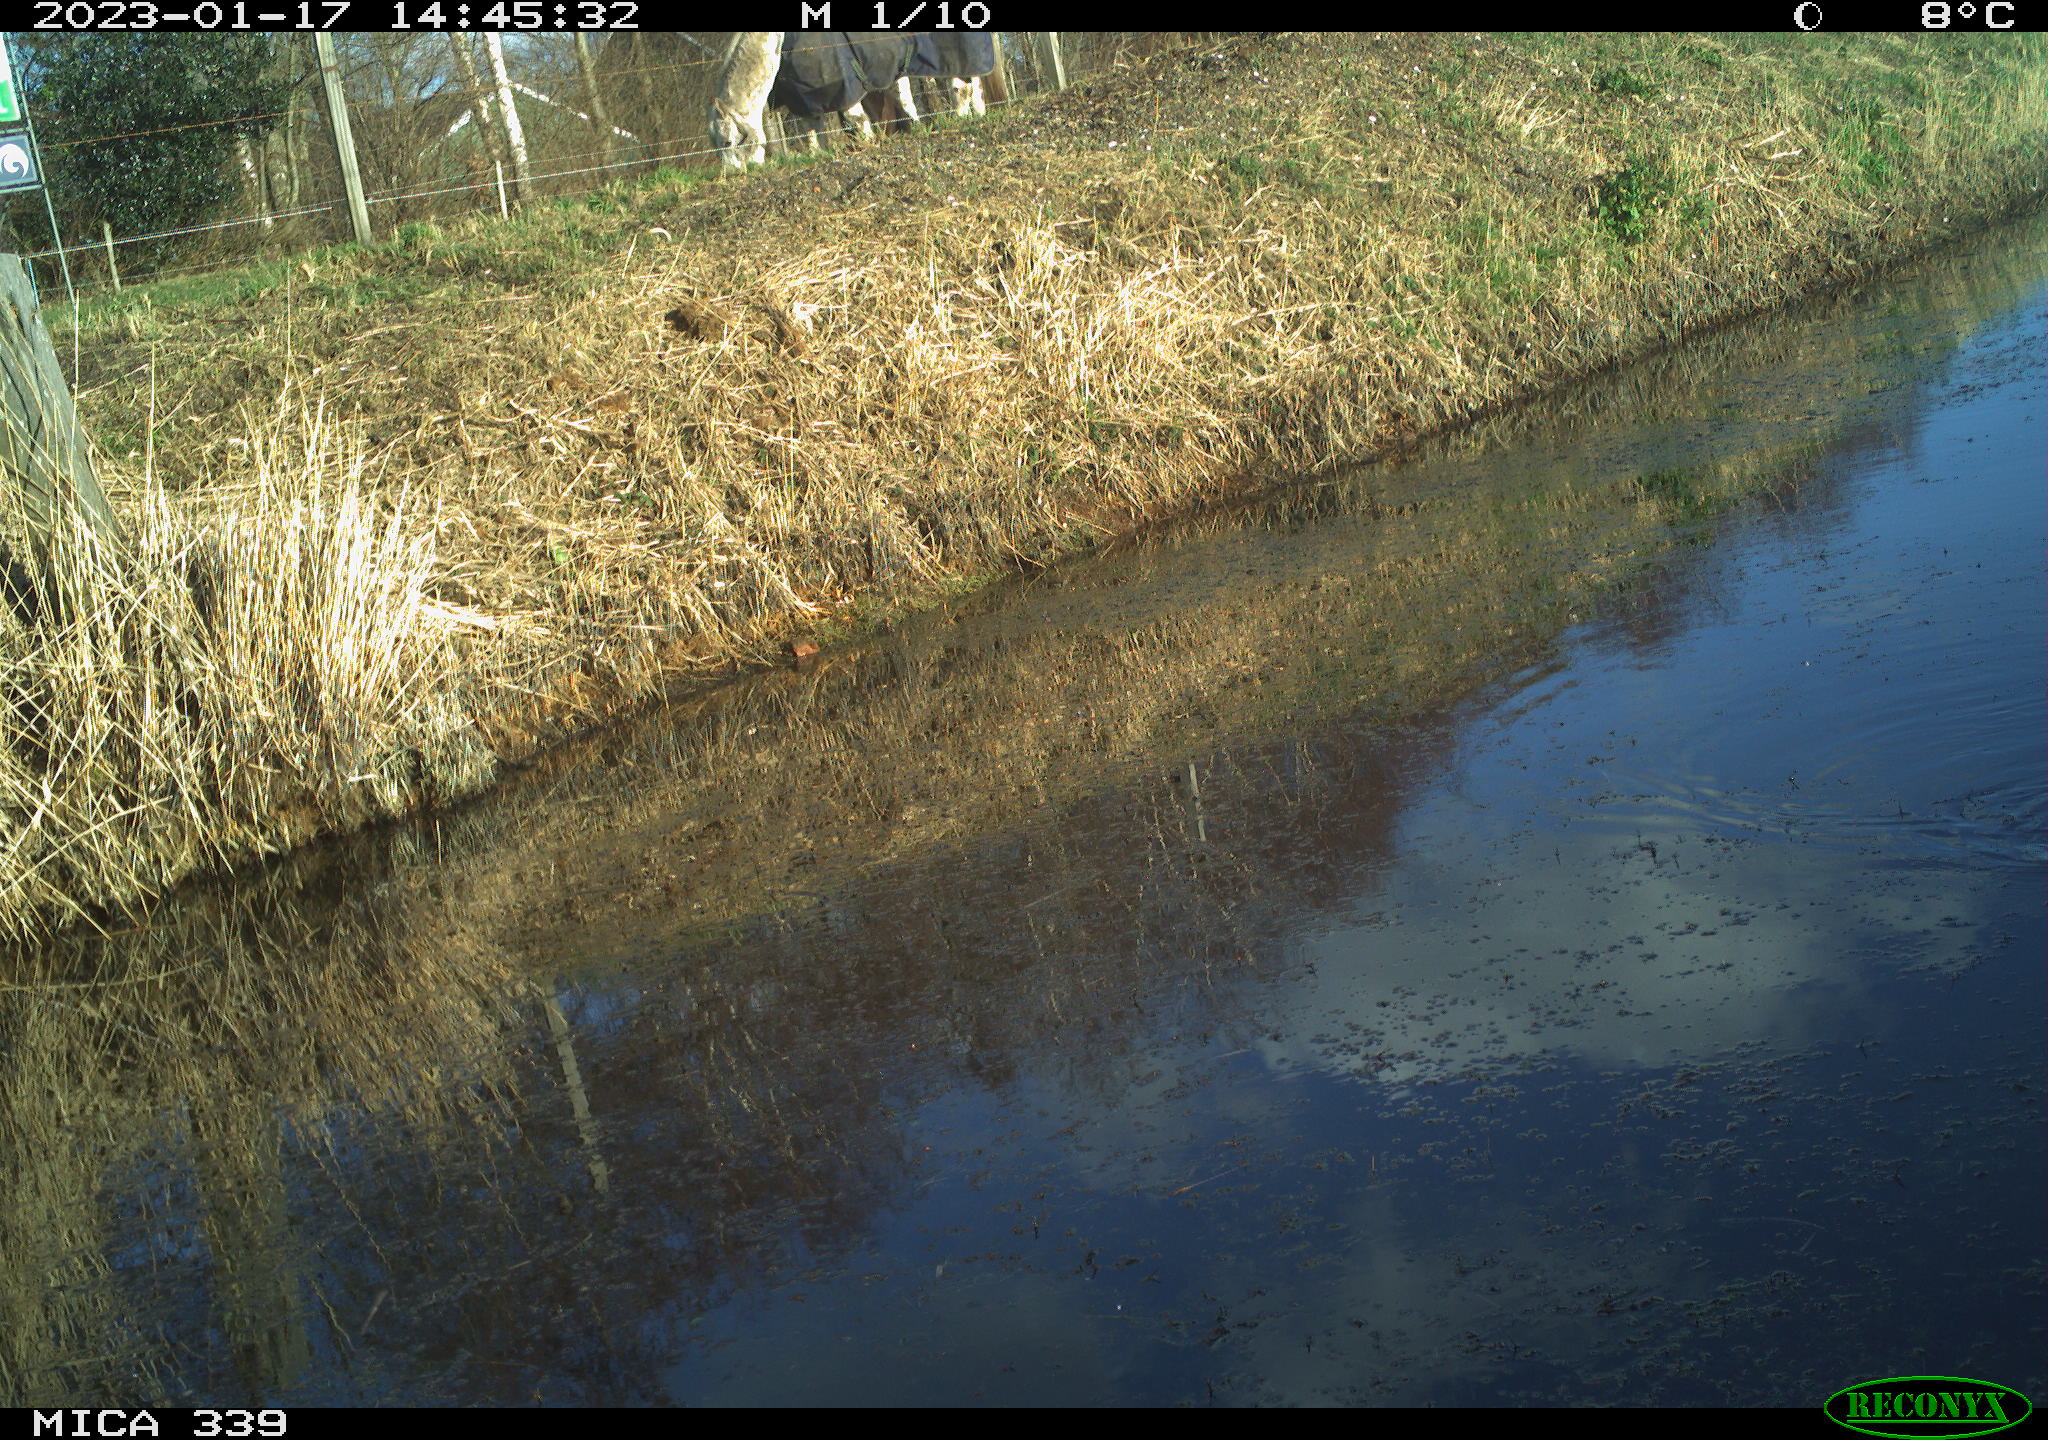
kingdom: Animalia
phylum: Chordata
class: Aves
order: Gruiformes
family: Rallidae
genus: Gallinula
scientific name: Gallinula chloropus
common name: Common moorhen
